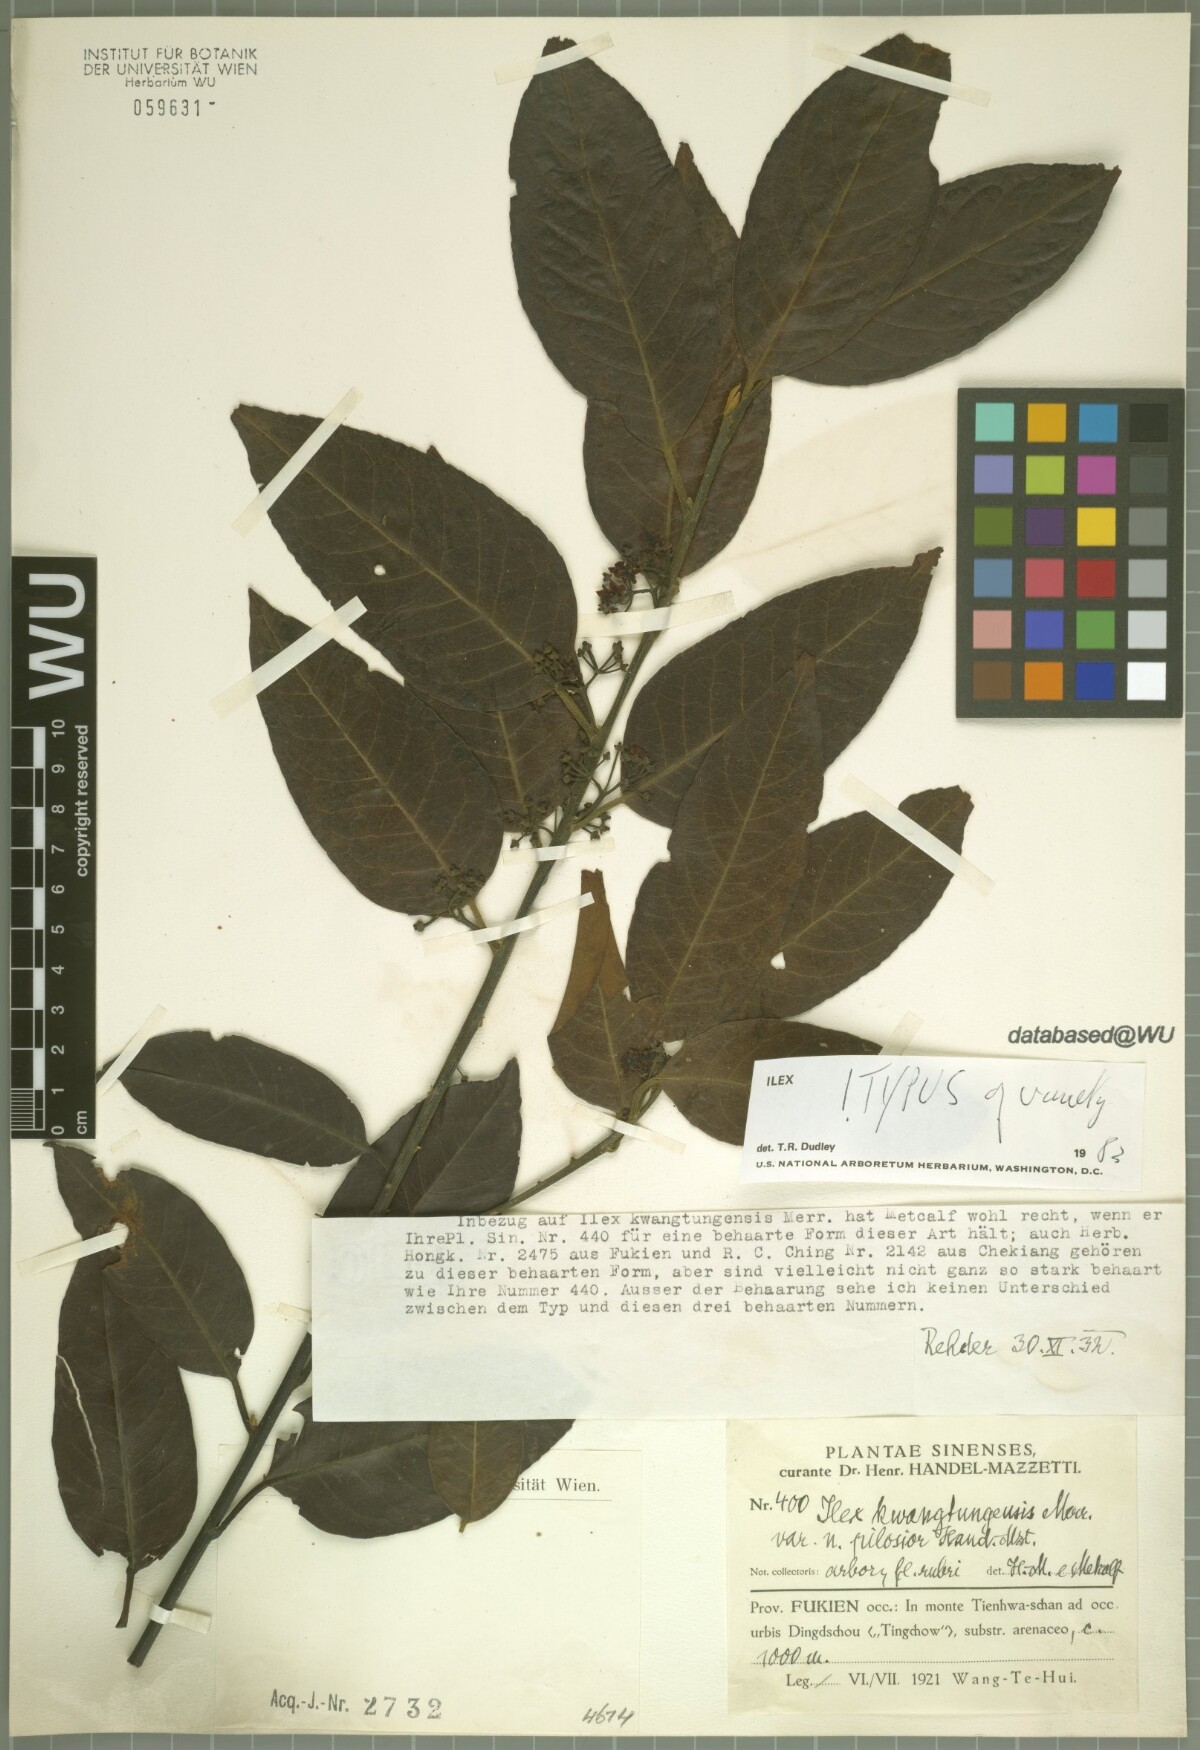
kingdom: Plantae
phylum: Tracheophyta
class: Magnoliopsida
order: Aquifoliales
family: Aquifoliaceae
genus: Ilex
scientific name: Ilex kwangtungensis
